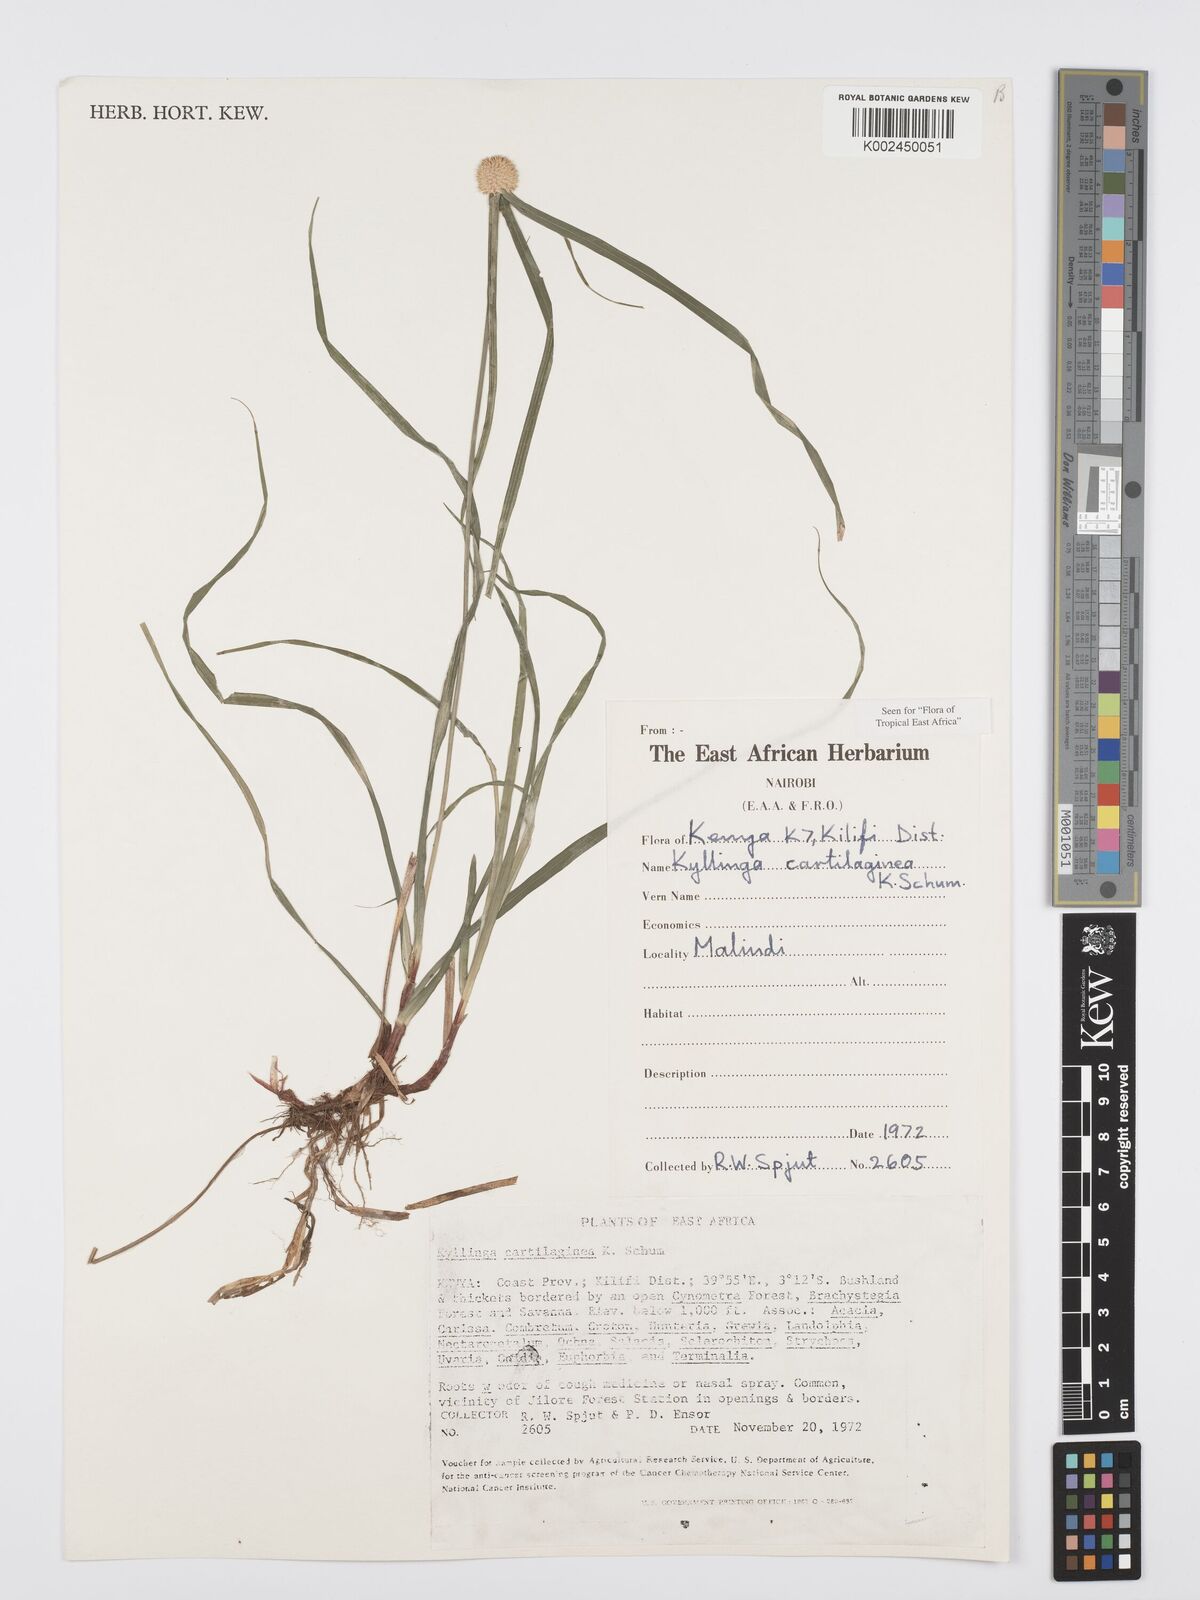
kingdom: Plantae
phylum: Tracheophyta
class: Liliopsida
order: Poales
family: Cyperaceae
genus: Cyperus
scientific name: Cyperus cartilagineus
